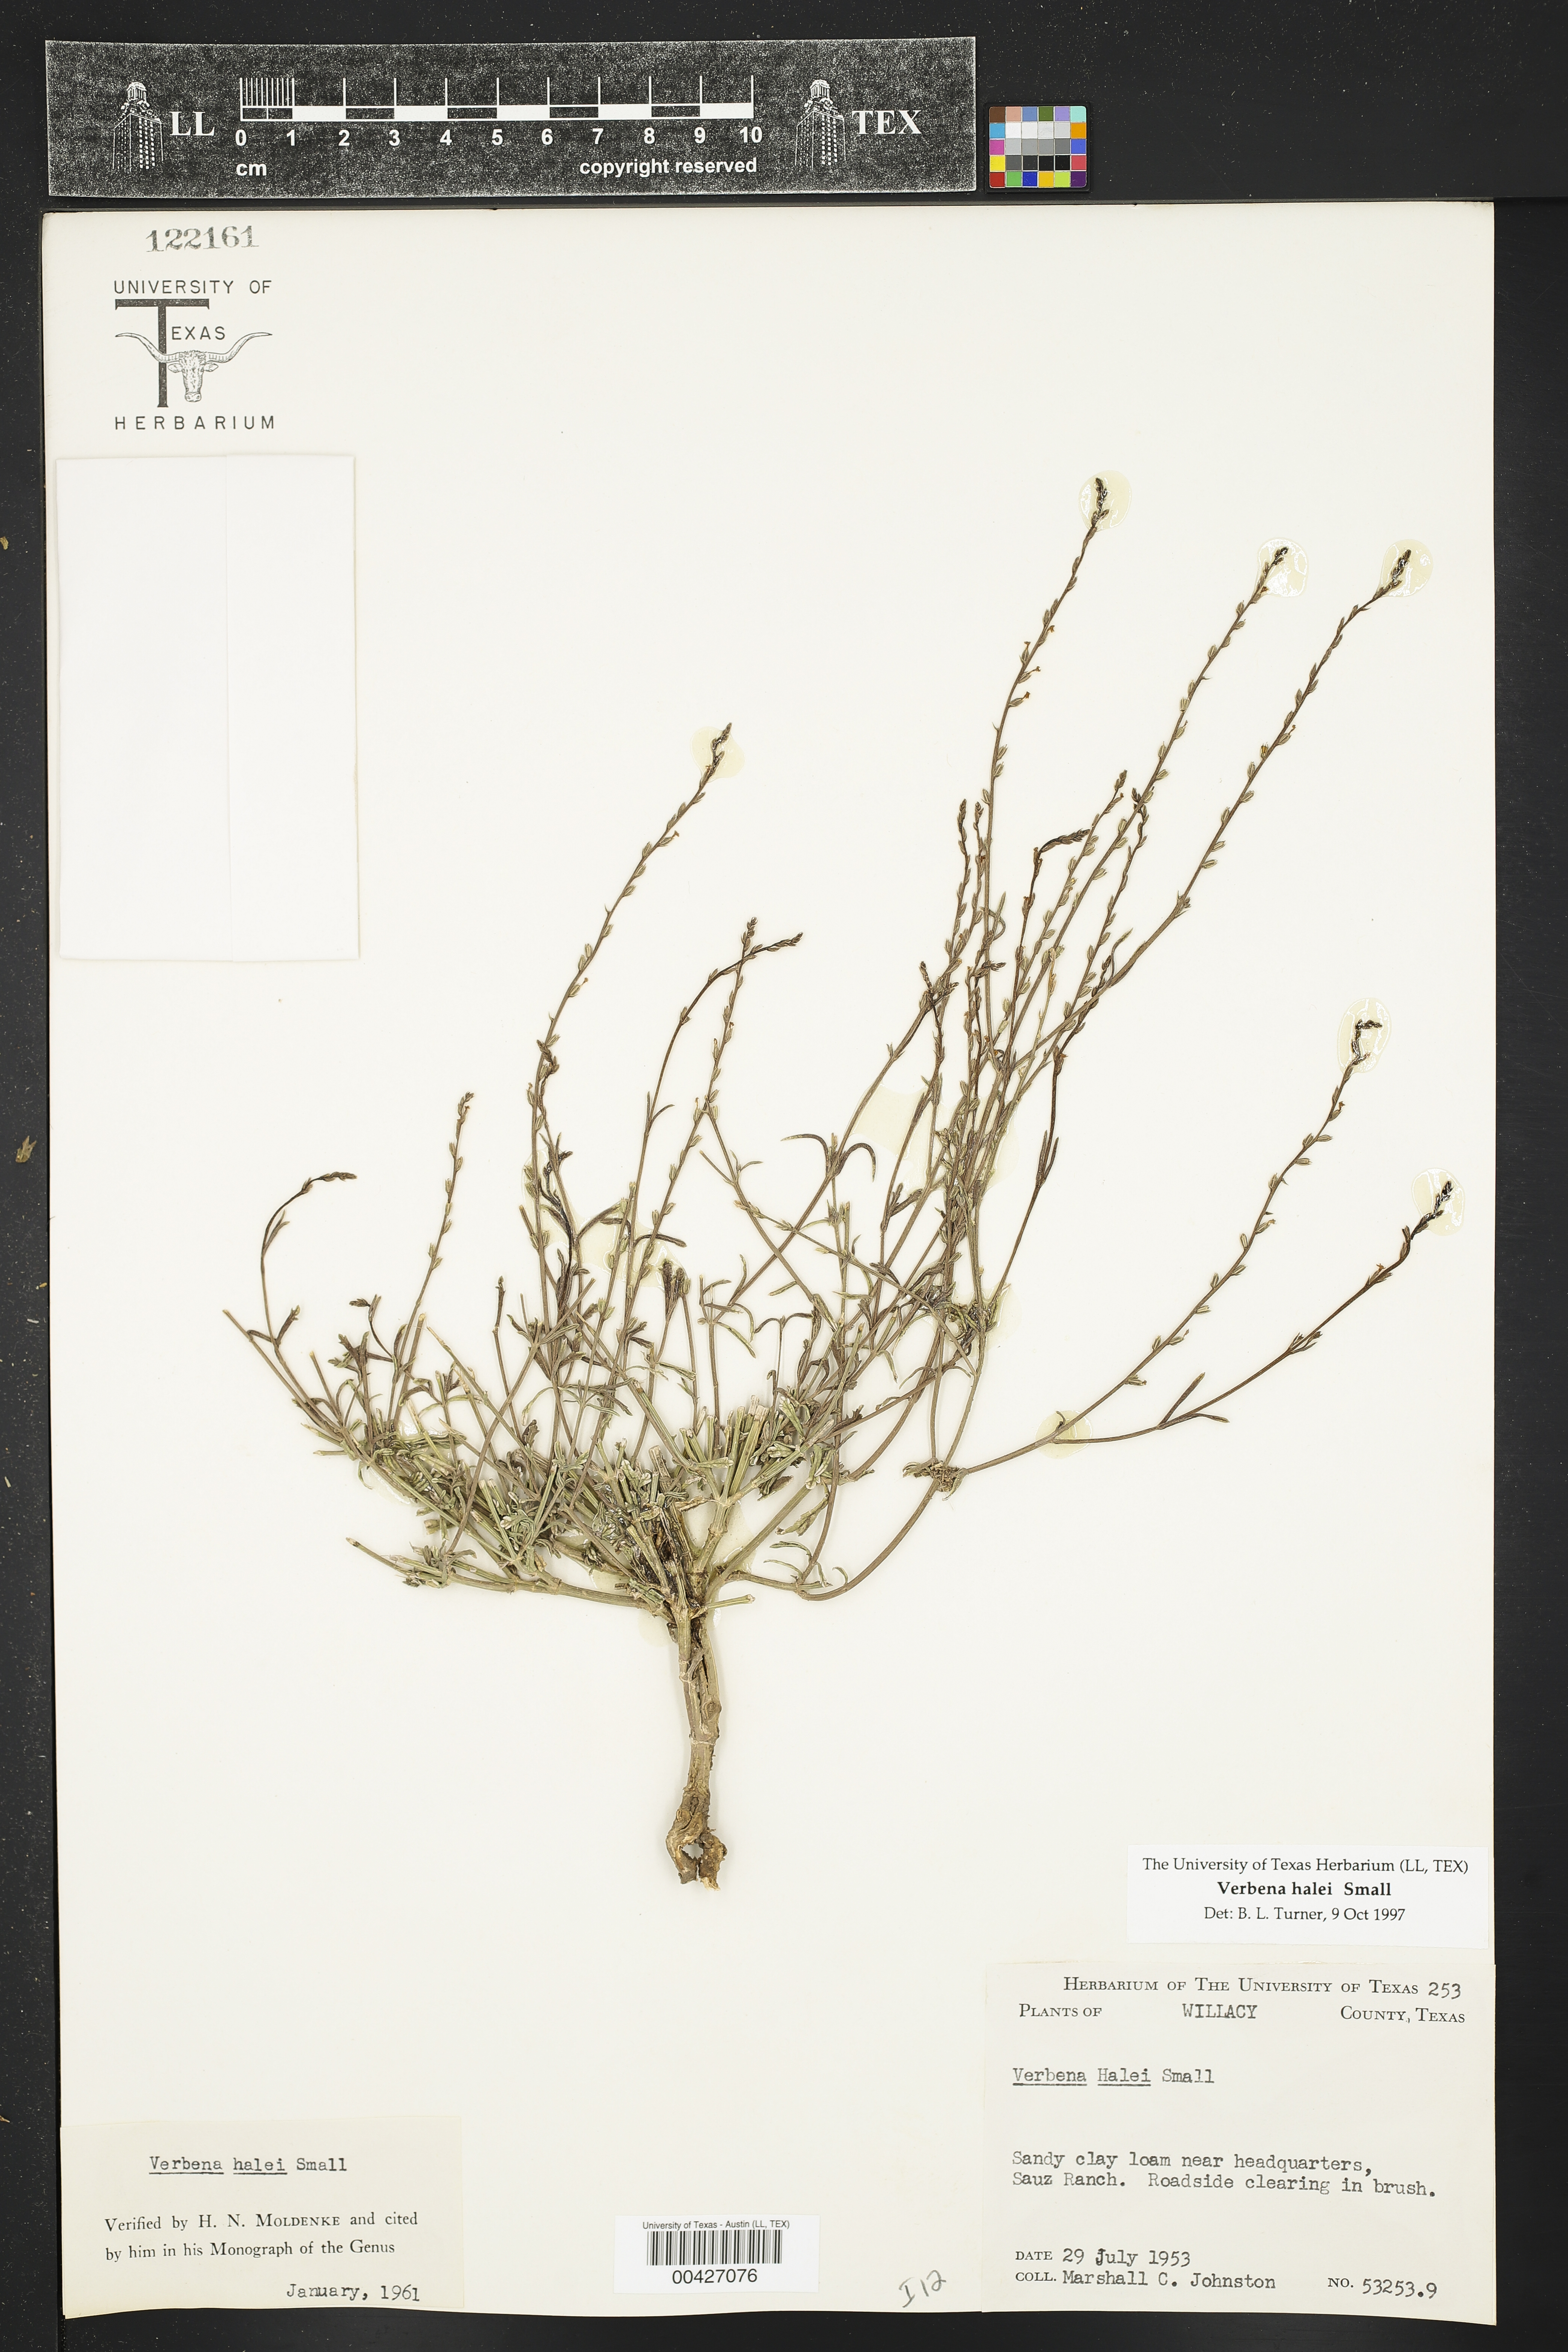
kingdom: Plantae
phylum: Tracheophyta
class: Magnoliopsida
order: Lamiales
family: Verbenaceae
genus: Verbena
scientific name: Verbena halei
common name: Texas vervain
